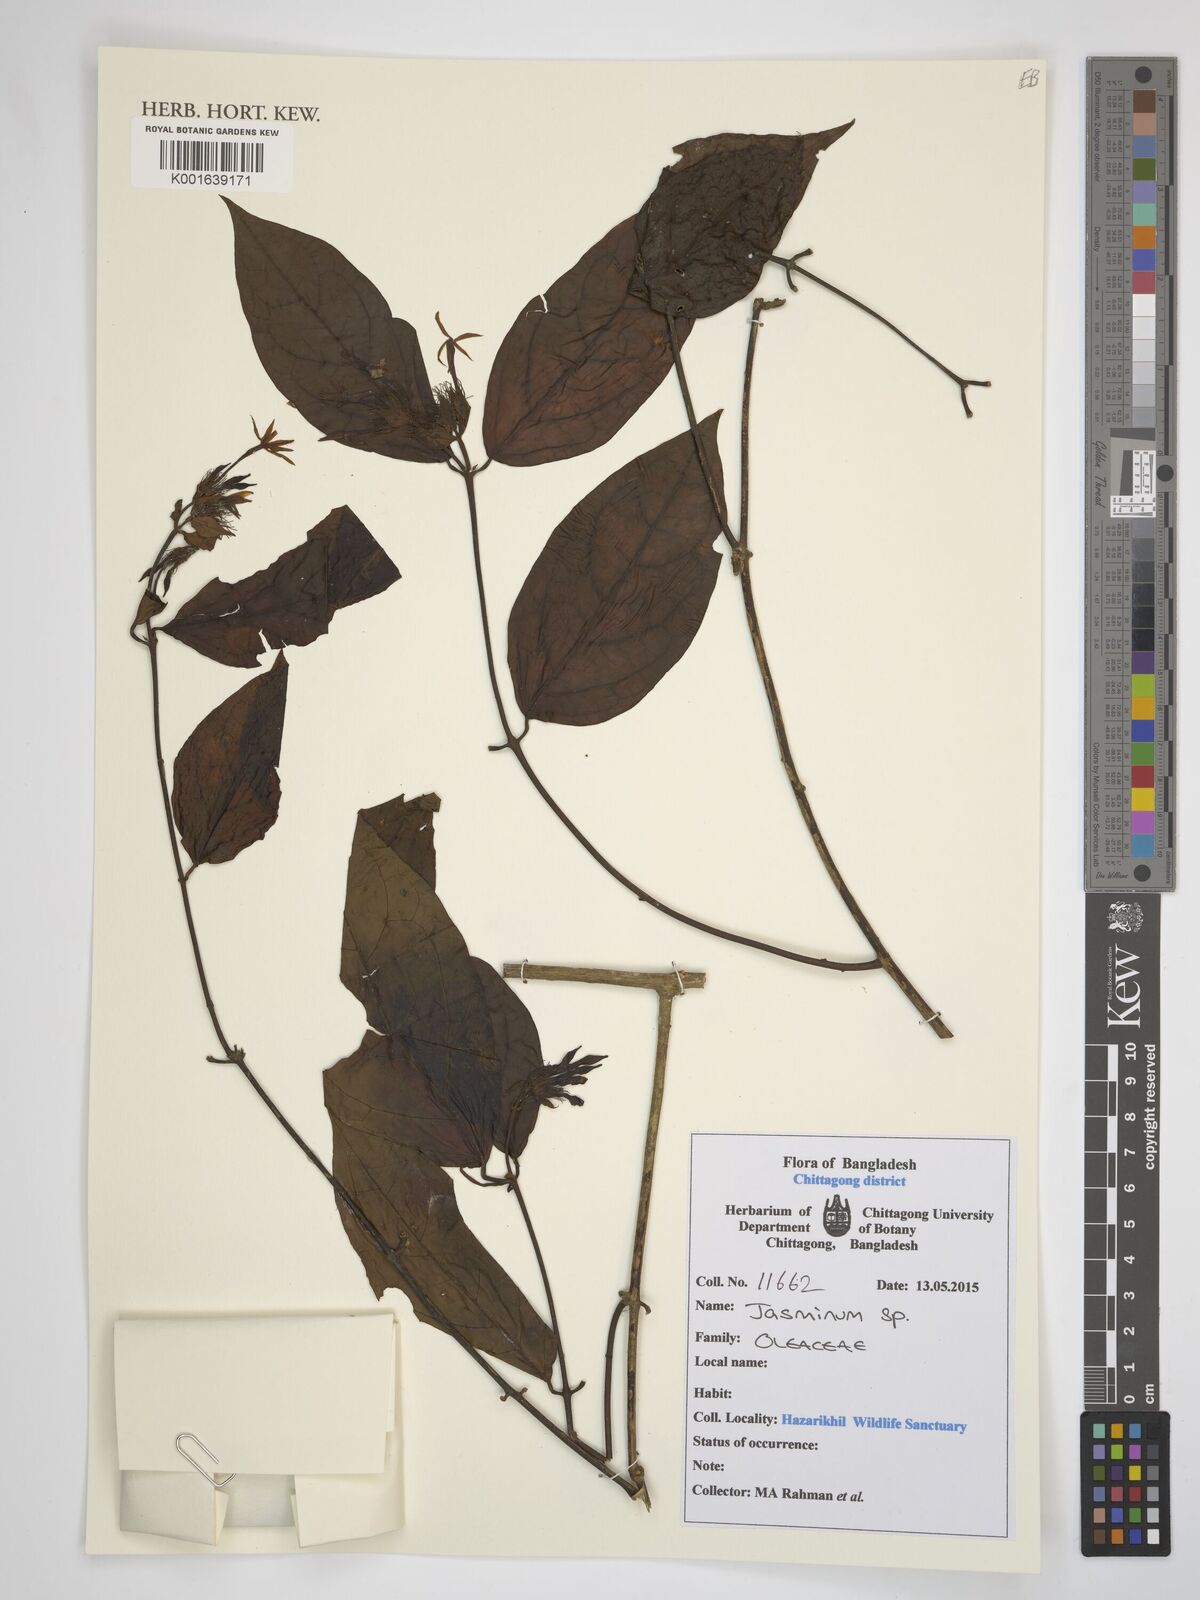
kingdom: Plantae
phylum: Tracheophyta
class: Magnoliopsida
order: Lamiales
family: Oleaceae
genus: Jasminum
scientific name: Jasminum
